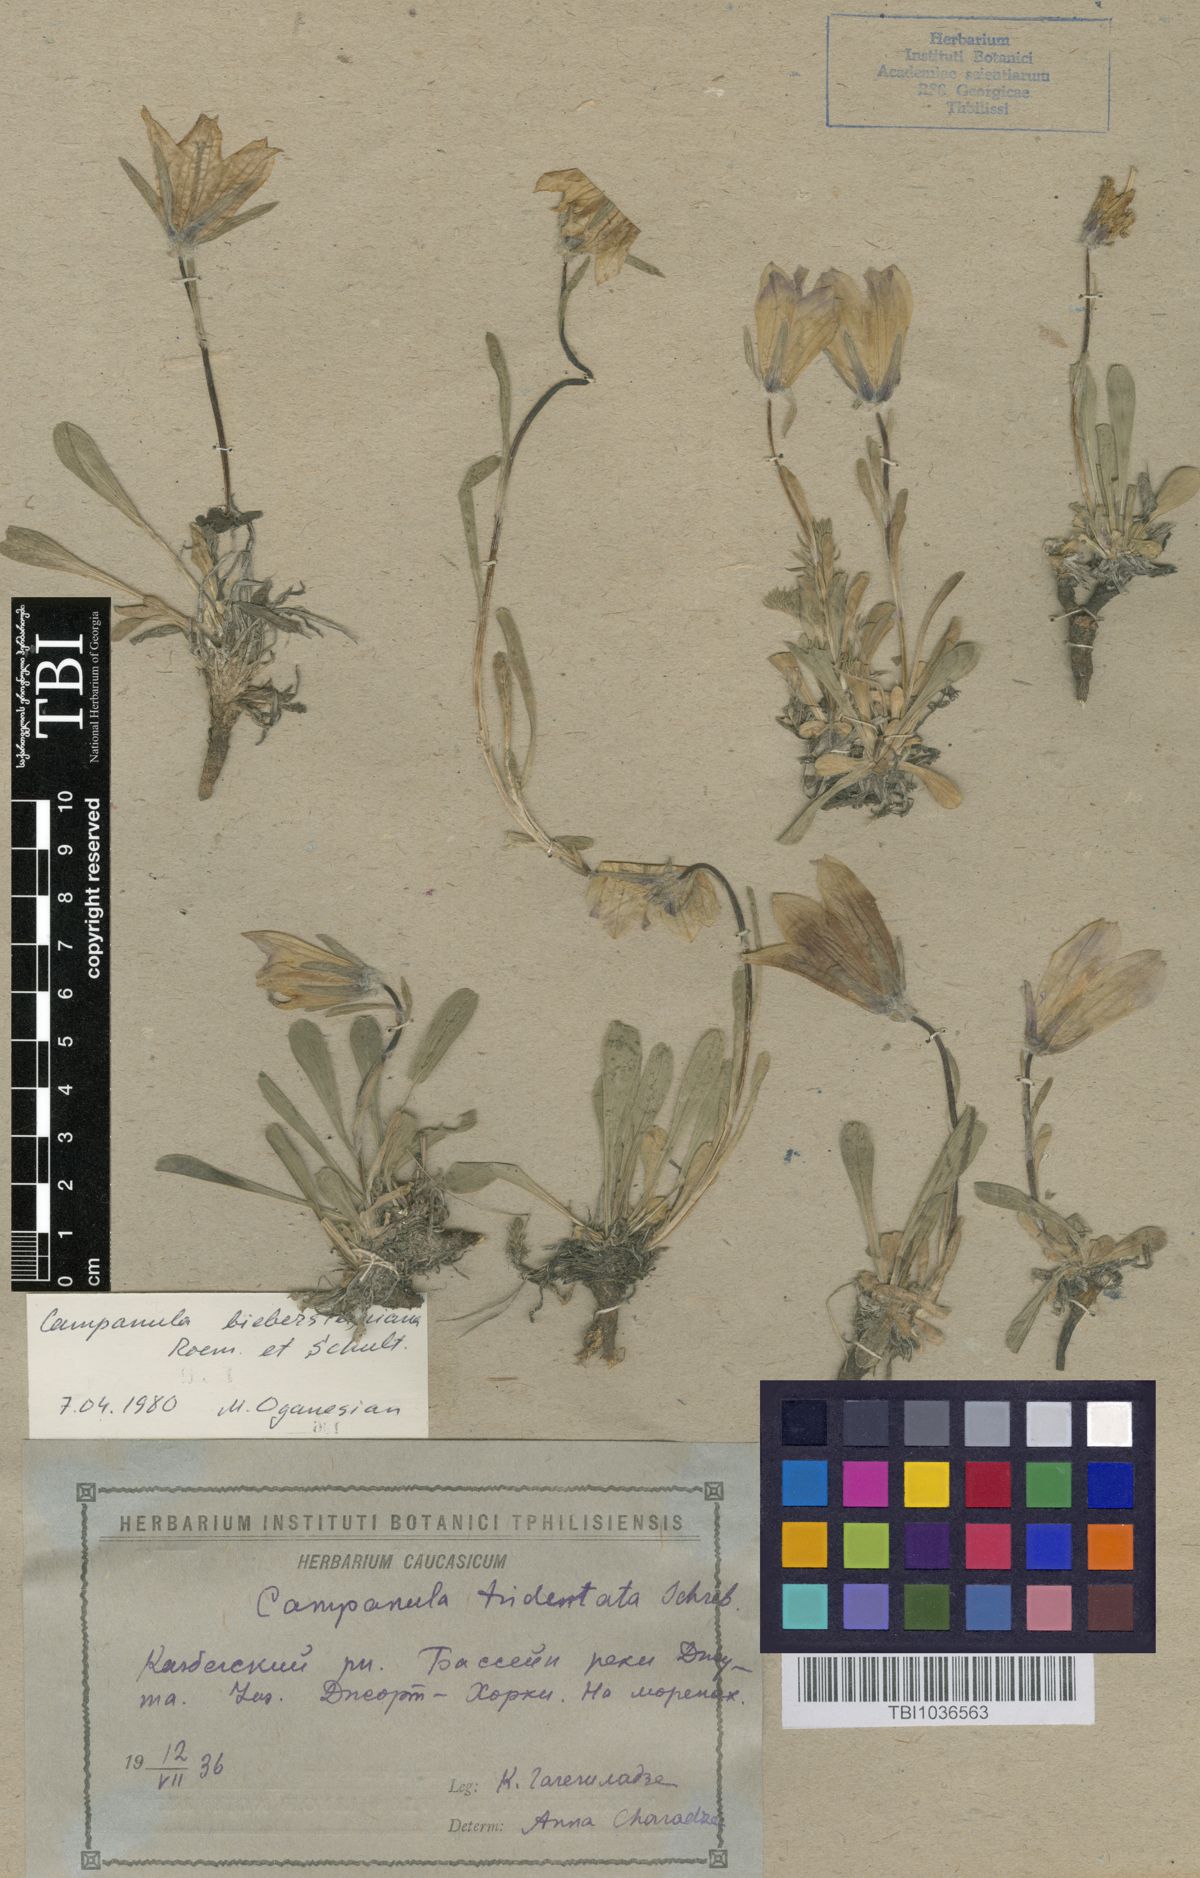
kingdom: Plantae
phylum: Tracheophyta
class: Magnoliopsida
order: Asterales
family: Campanulaceae
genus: Campanula
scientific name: Campanula tridentata
